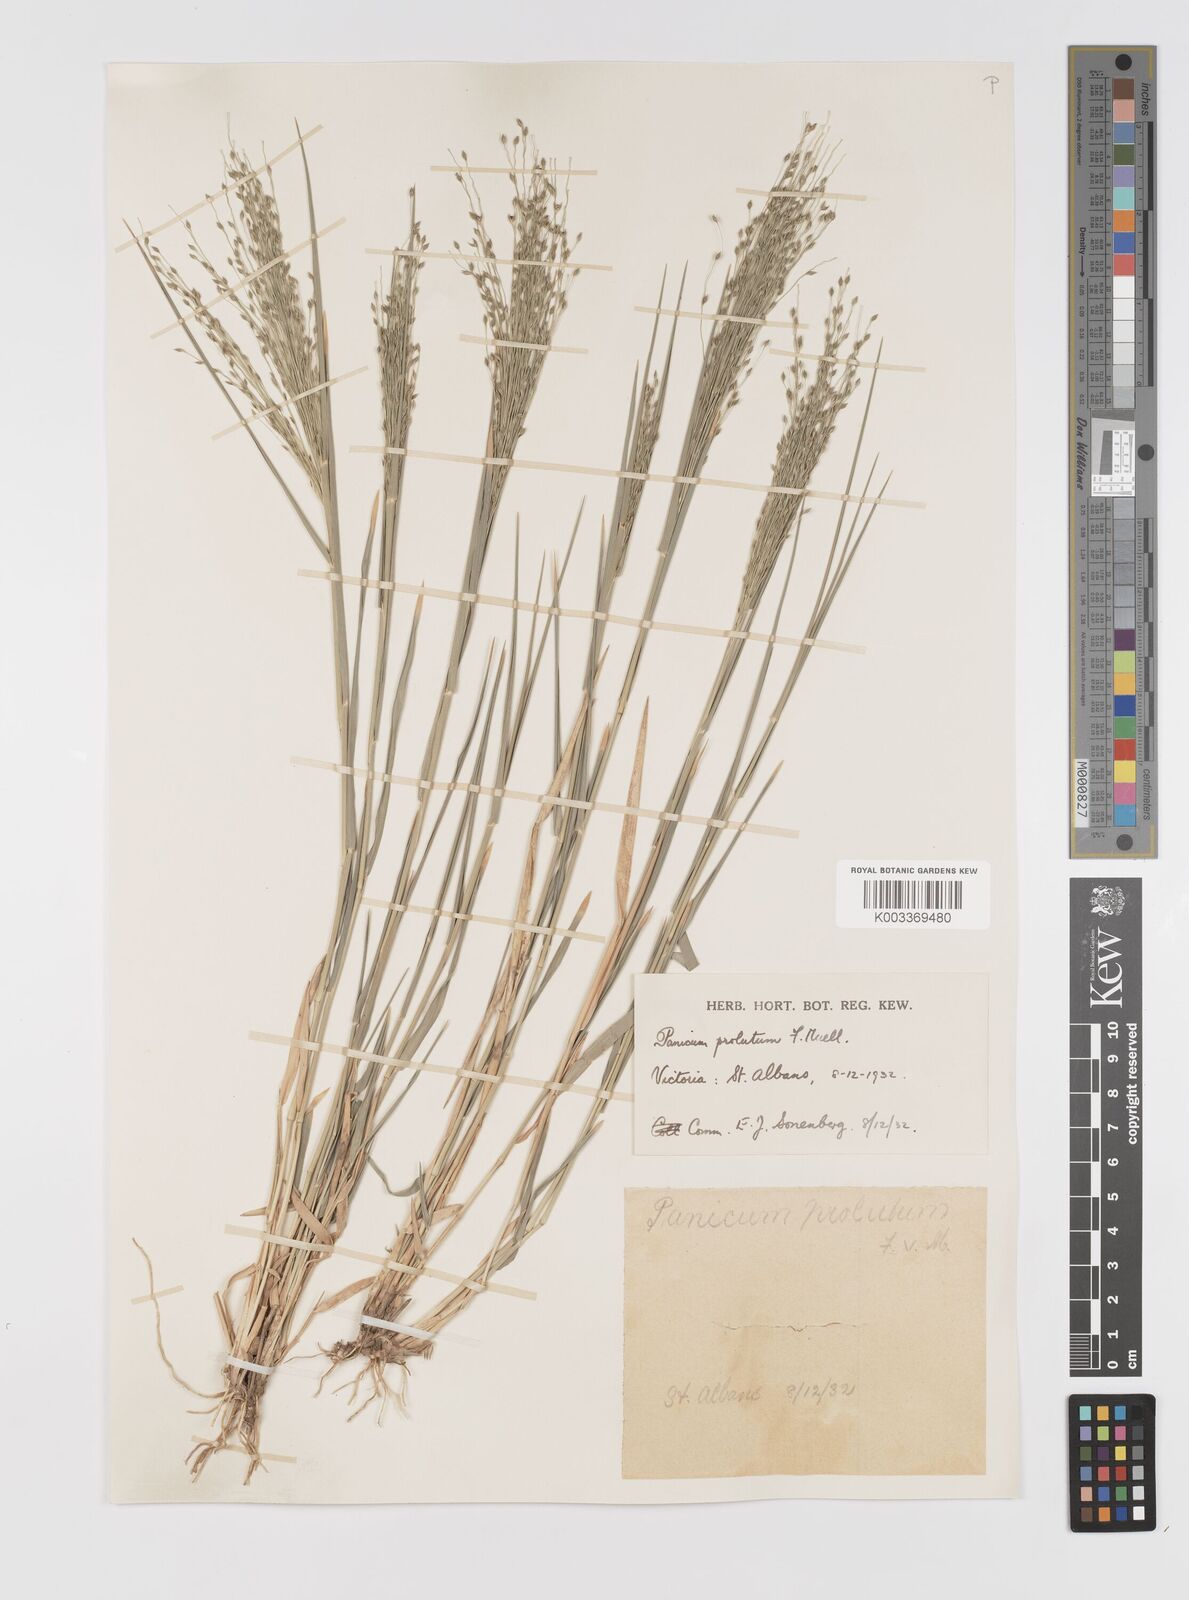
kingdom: Plantae
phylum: Tracheophyta
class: Liliopsida
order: Poales
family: Poaceae
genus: Walwhalleya
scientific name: Walwhalleya proluta
